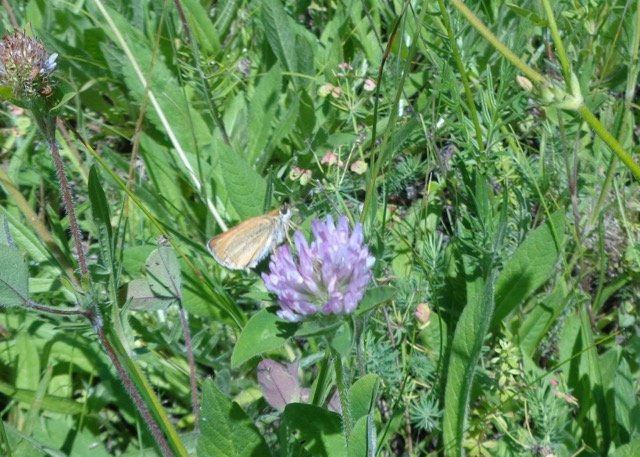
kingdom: Animalia
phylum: Arthropoda
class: Insecta
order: Lepidoptera
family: Hesperiidae
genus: Thymelicus
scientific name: Thymelicus lineola
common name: European Skipper
